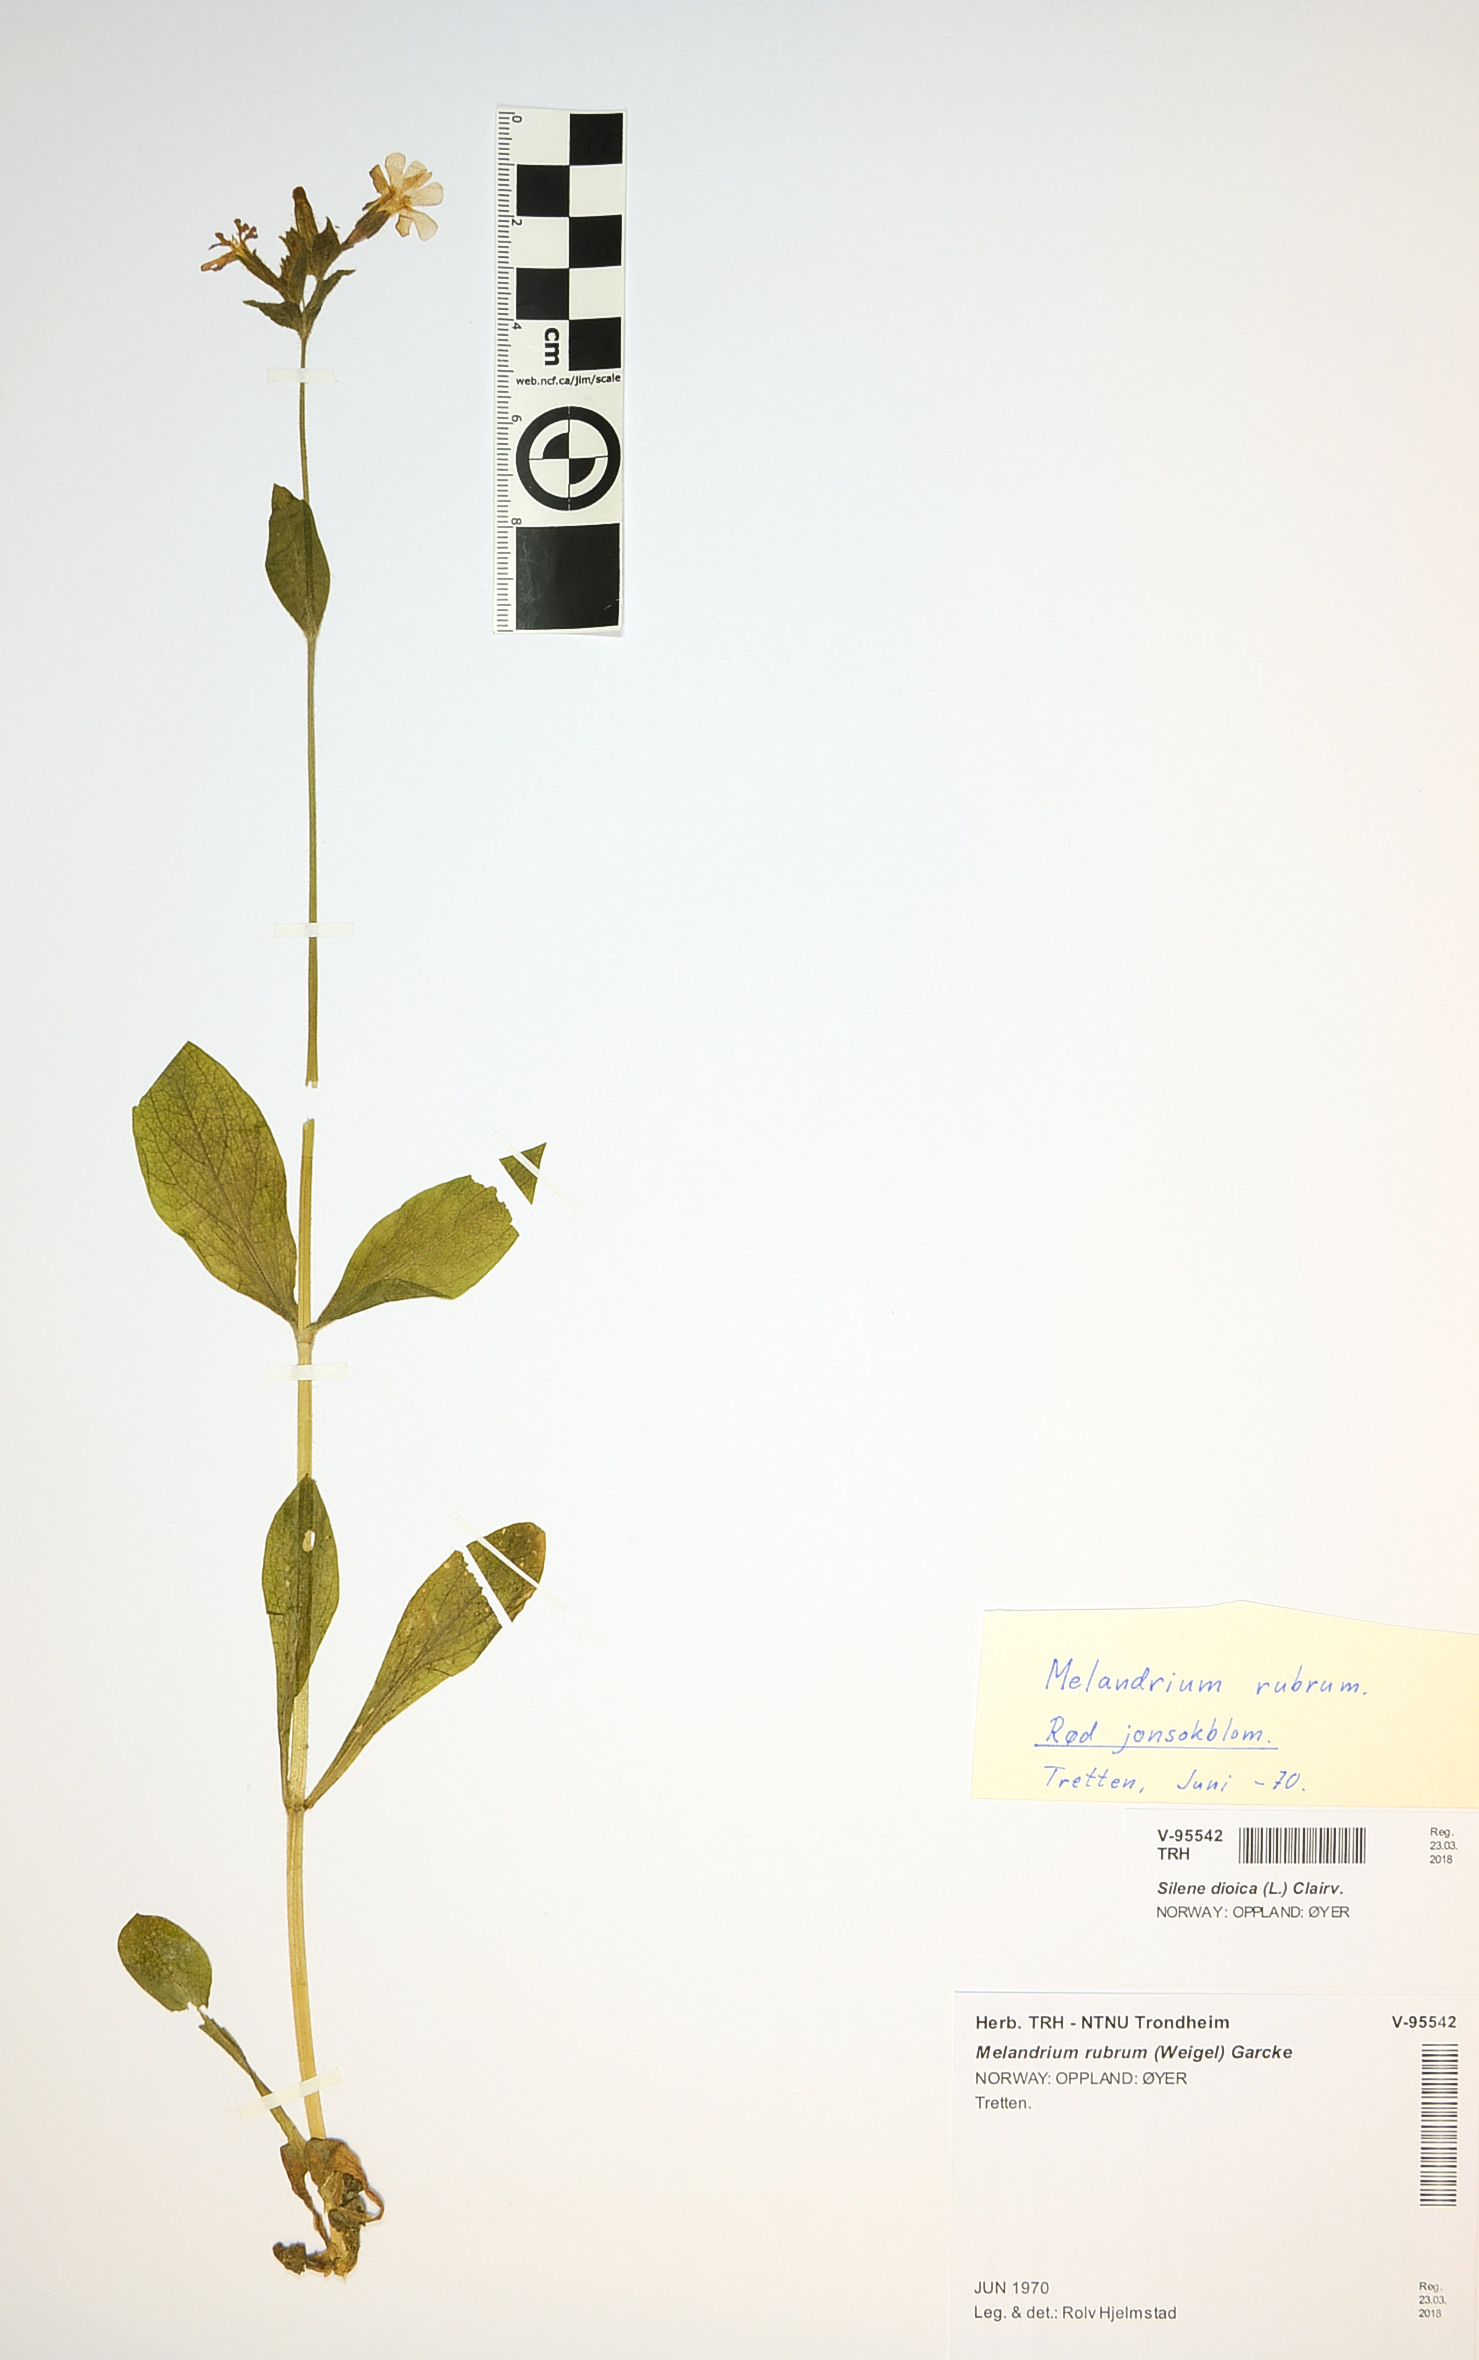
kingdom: Plantae
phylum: Tracheophyta
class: Magnoliopsida
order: Caryophyllales
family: Caryophyllaceae
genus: Silene
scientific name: Silene dioica
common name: Red campion
